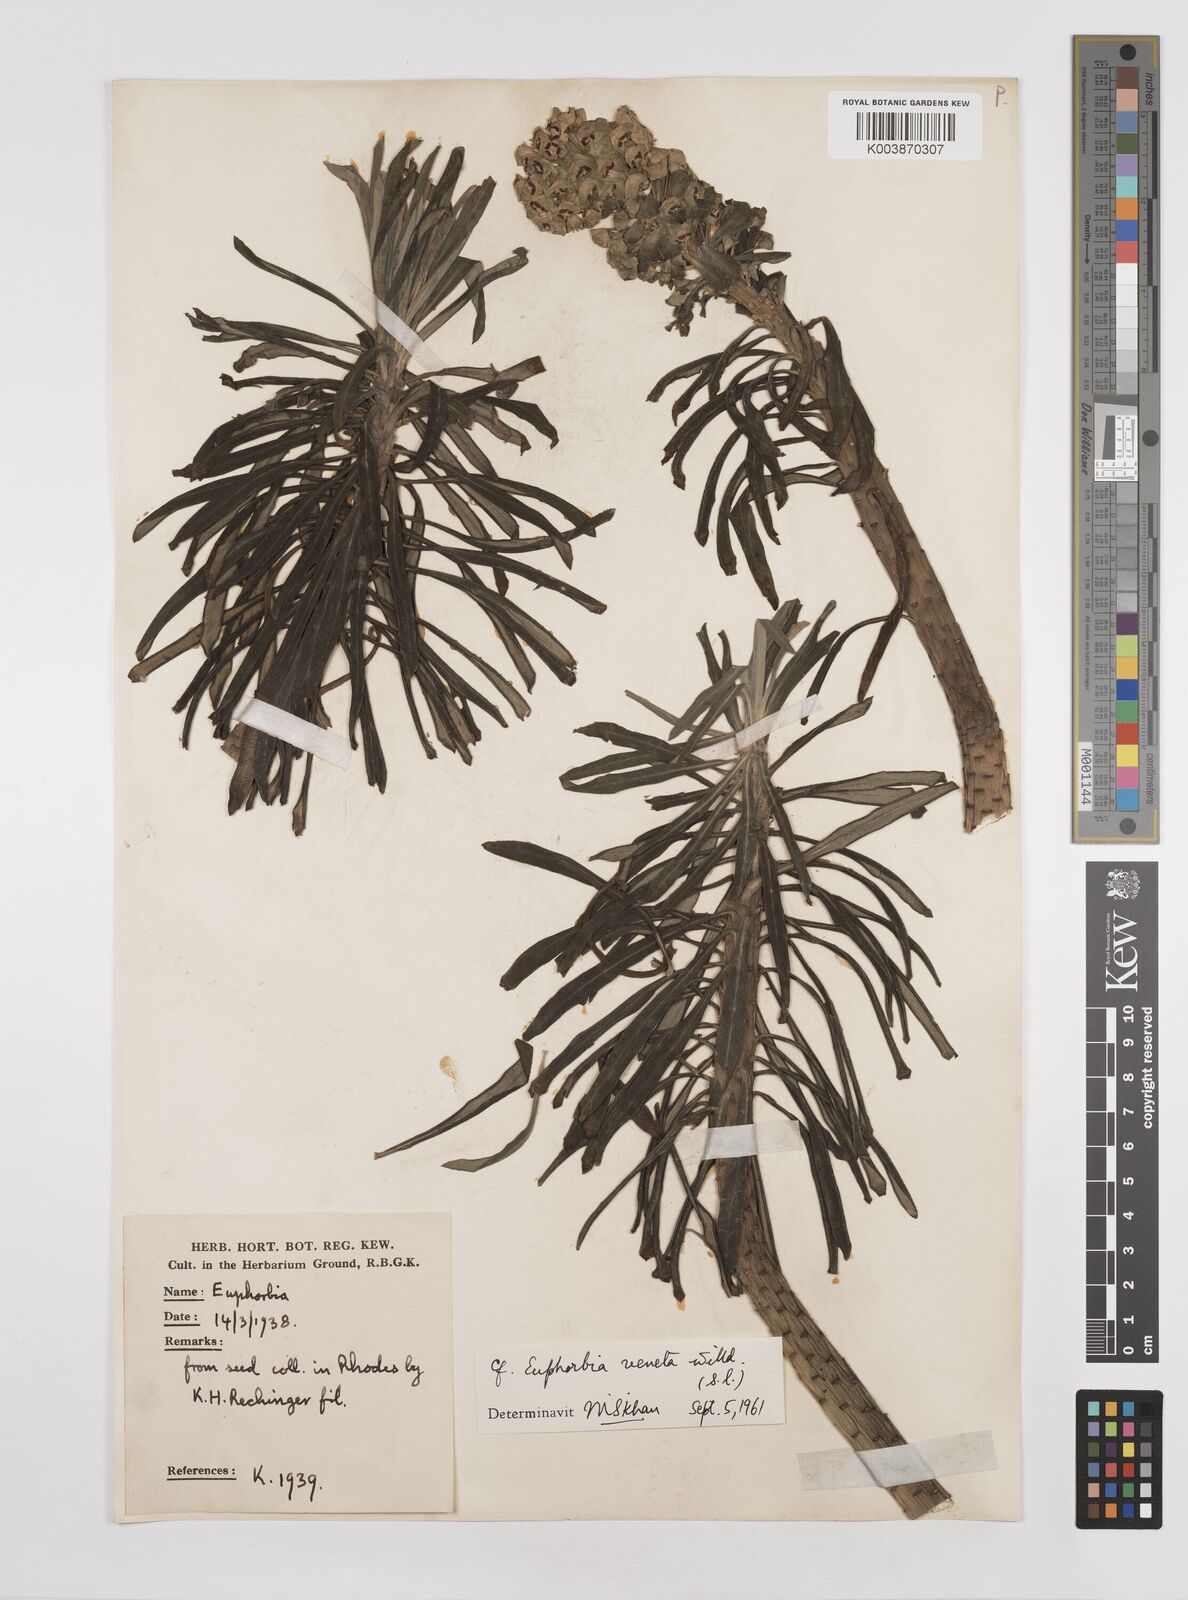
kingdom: Plantae
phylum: Tracheophyta
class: Magnoliopsida
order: Malpighiales
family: Euphorbiaceae
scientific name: Euphorbiaceae
